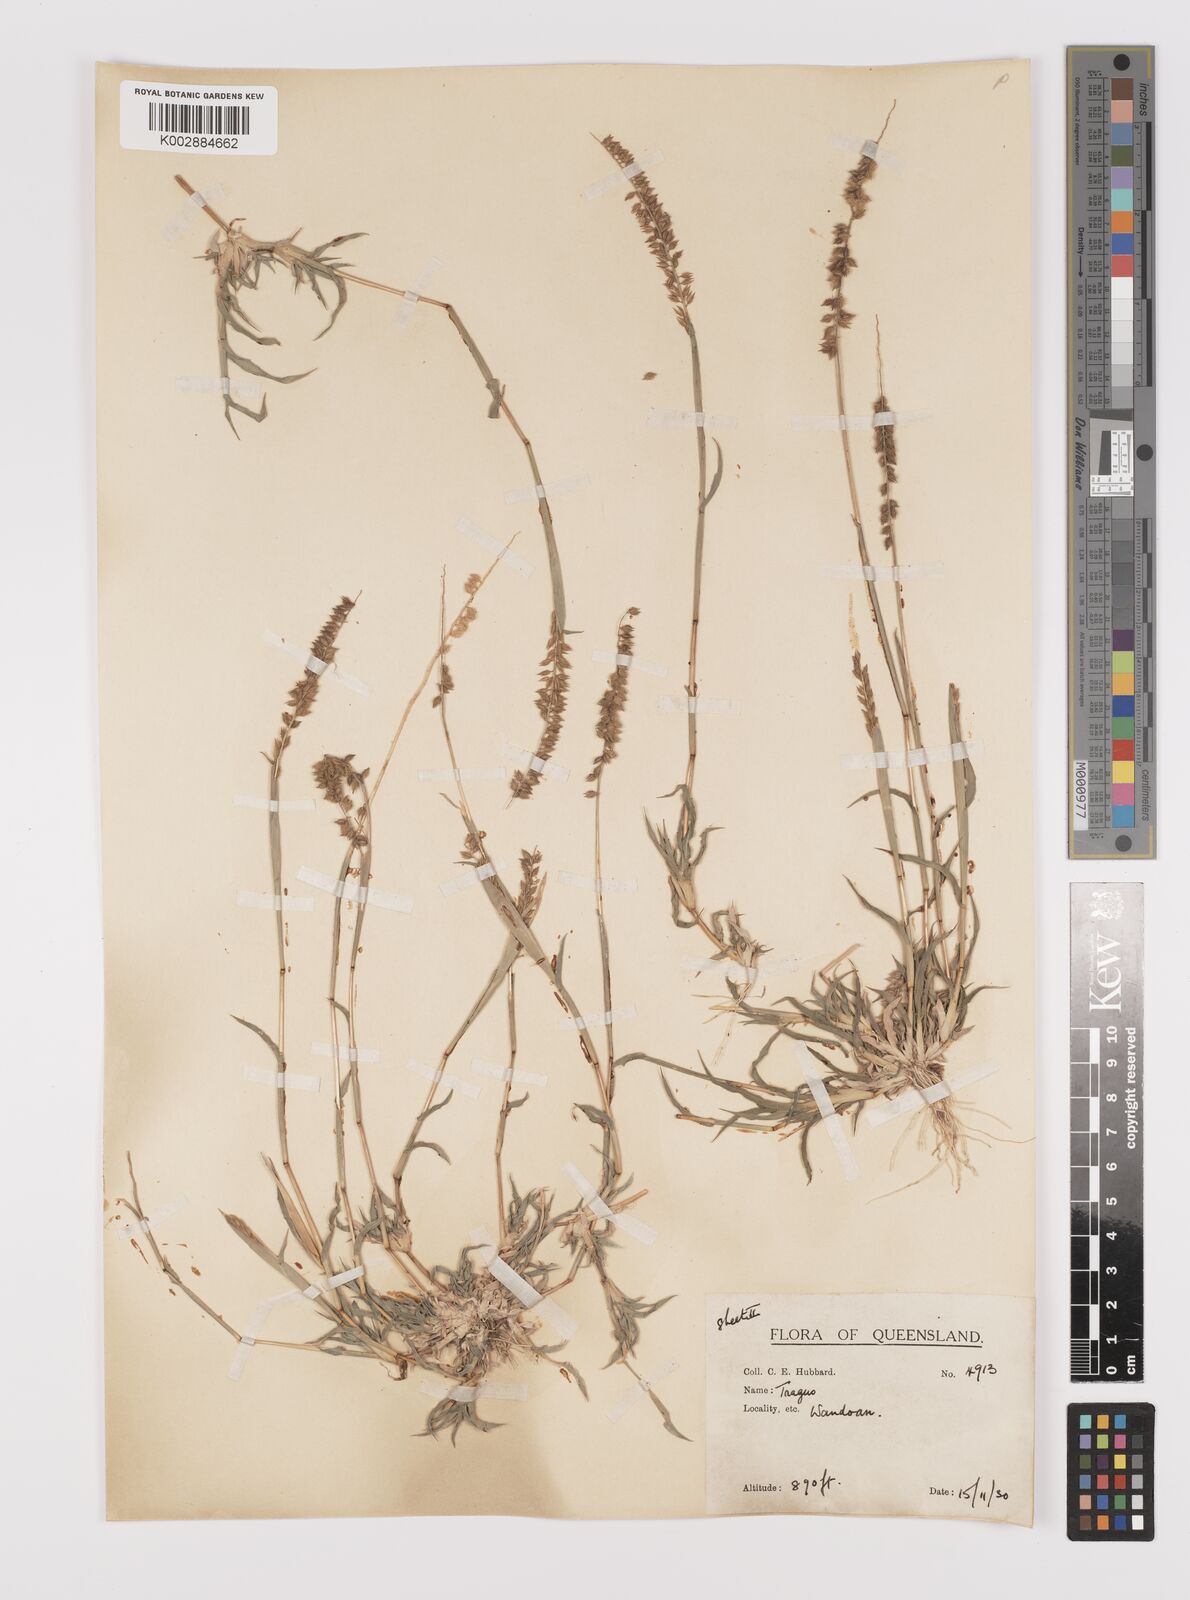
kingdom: Plantae
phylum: Tracheophyta
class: Liliopsida
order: Poales
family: Poaceae
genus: Tragus
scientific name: Tragus australianus
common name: Australian bur-grass
